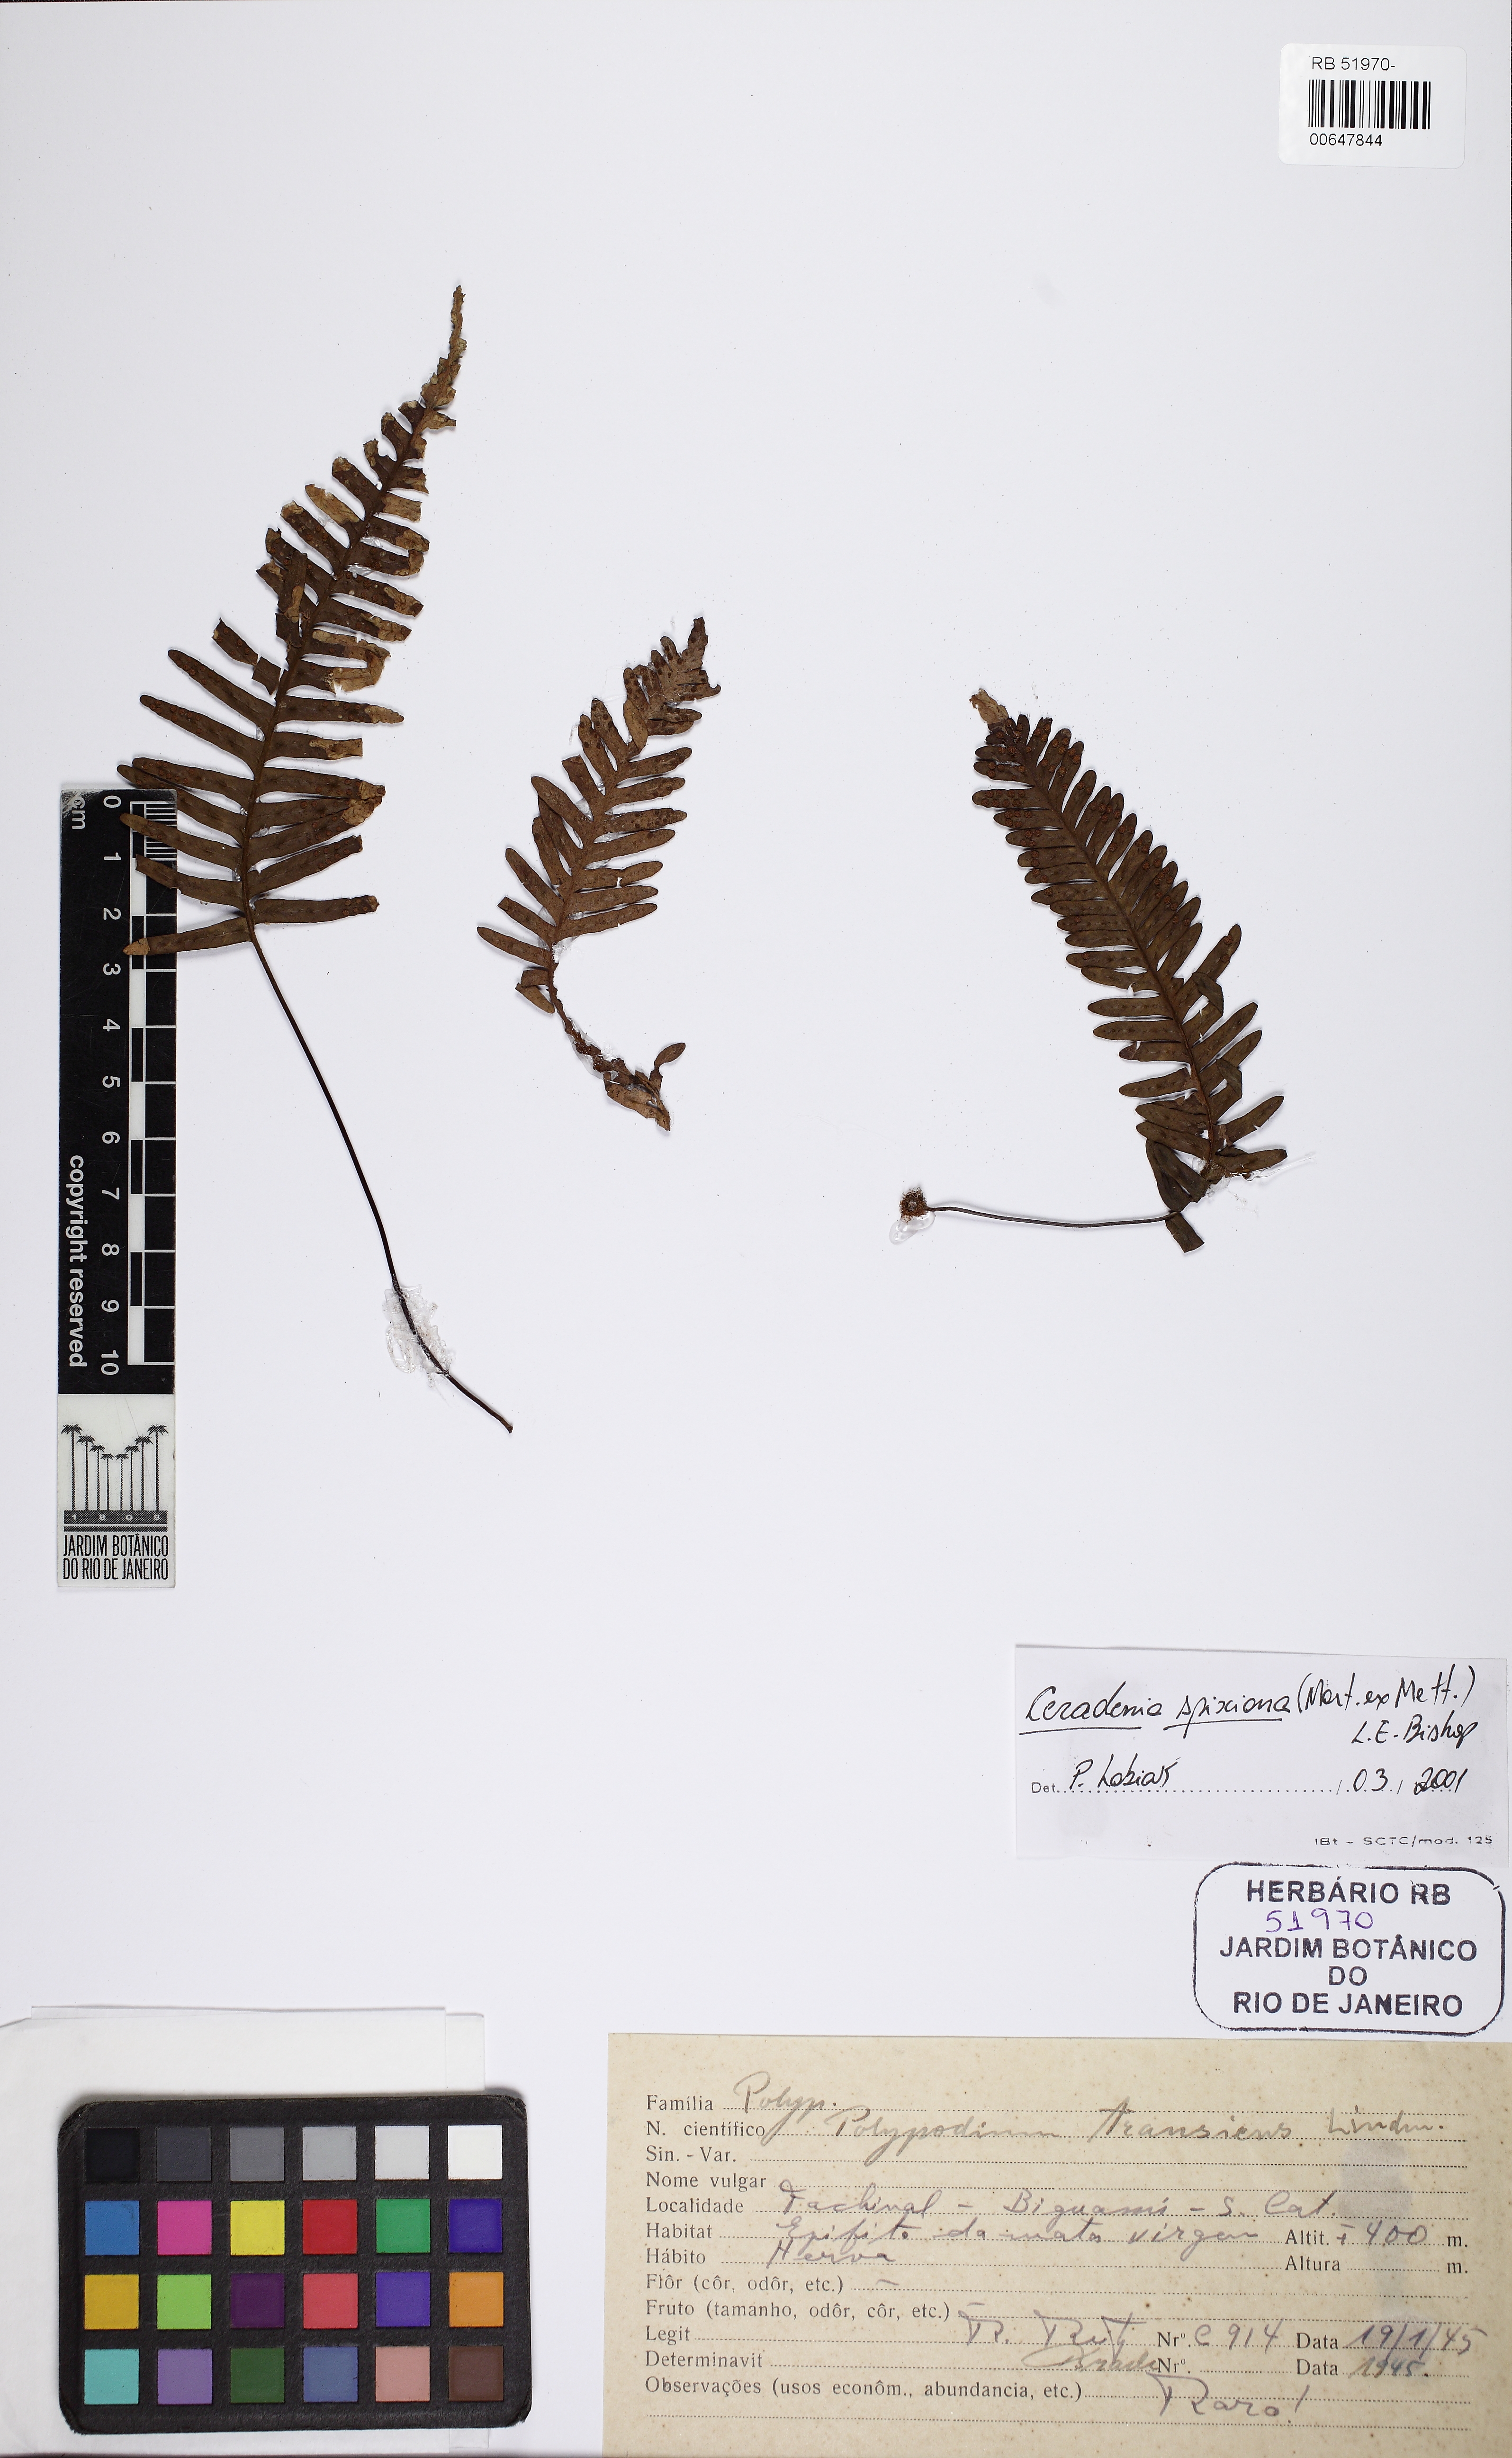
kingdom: Plantae
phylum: Tracheophyta
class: Polypodiopsida
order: Polypodiales
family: Polypodiaceae
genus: Ceradenia
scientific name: Ceradenia spixiana
